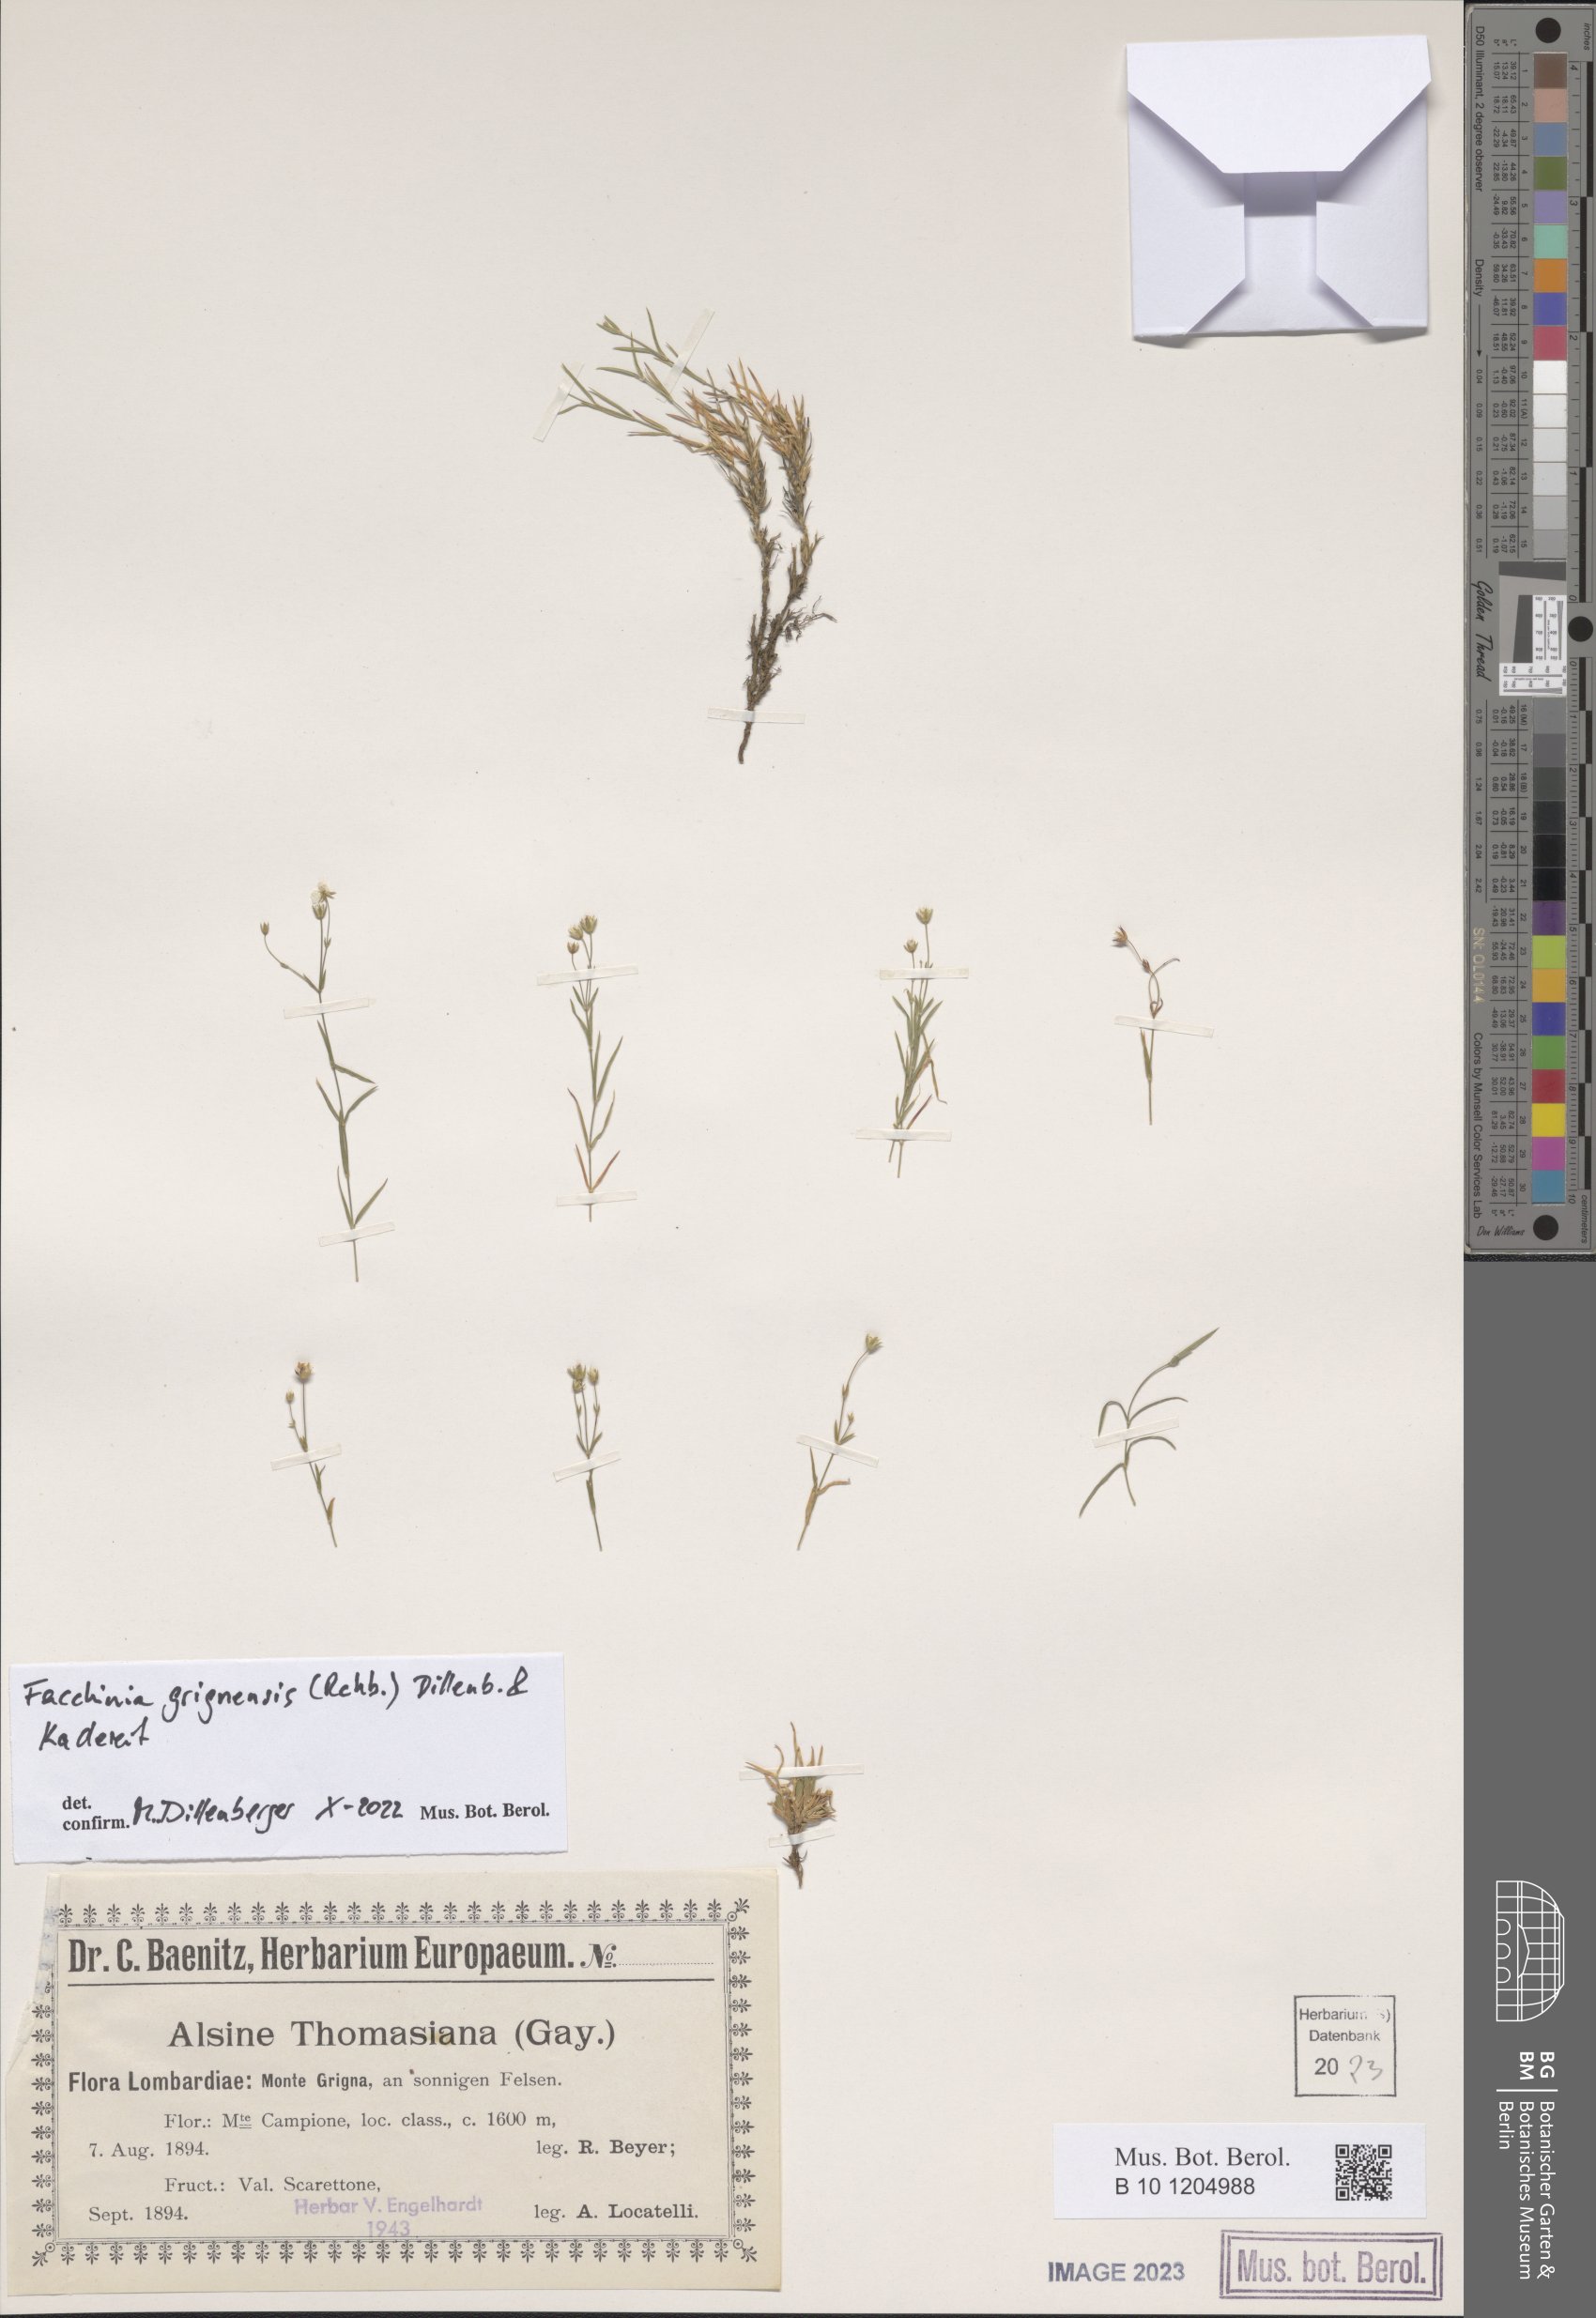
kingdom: Plantae
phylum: Tracheophyta
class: Magnoliopsida
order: Caryophyllales
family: Caryophyllaceae
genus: Facchinia
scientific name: Facchinia grignensis
